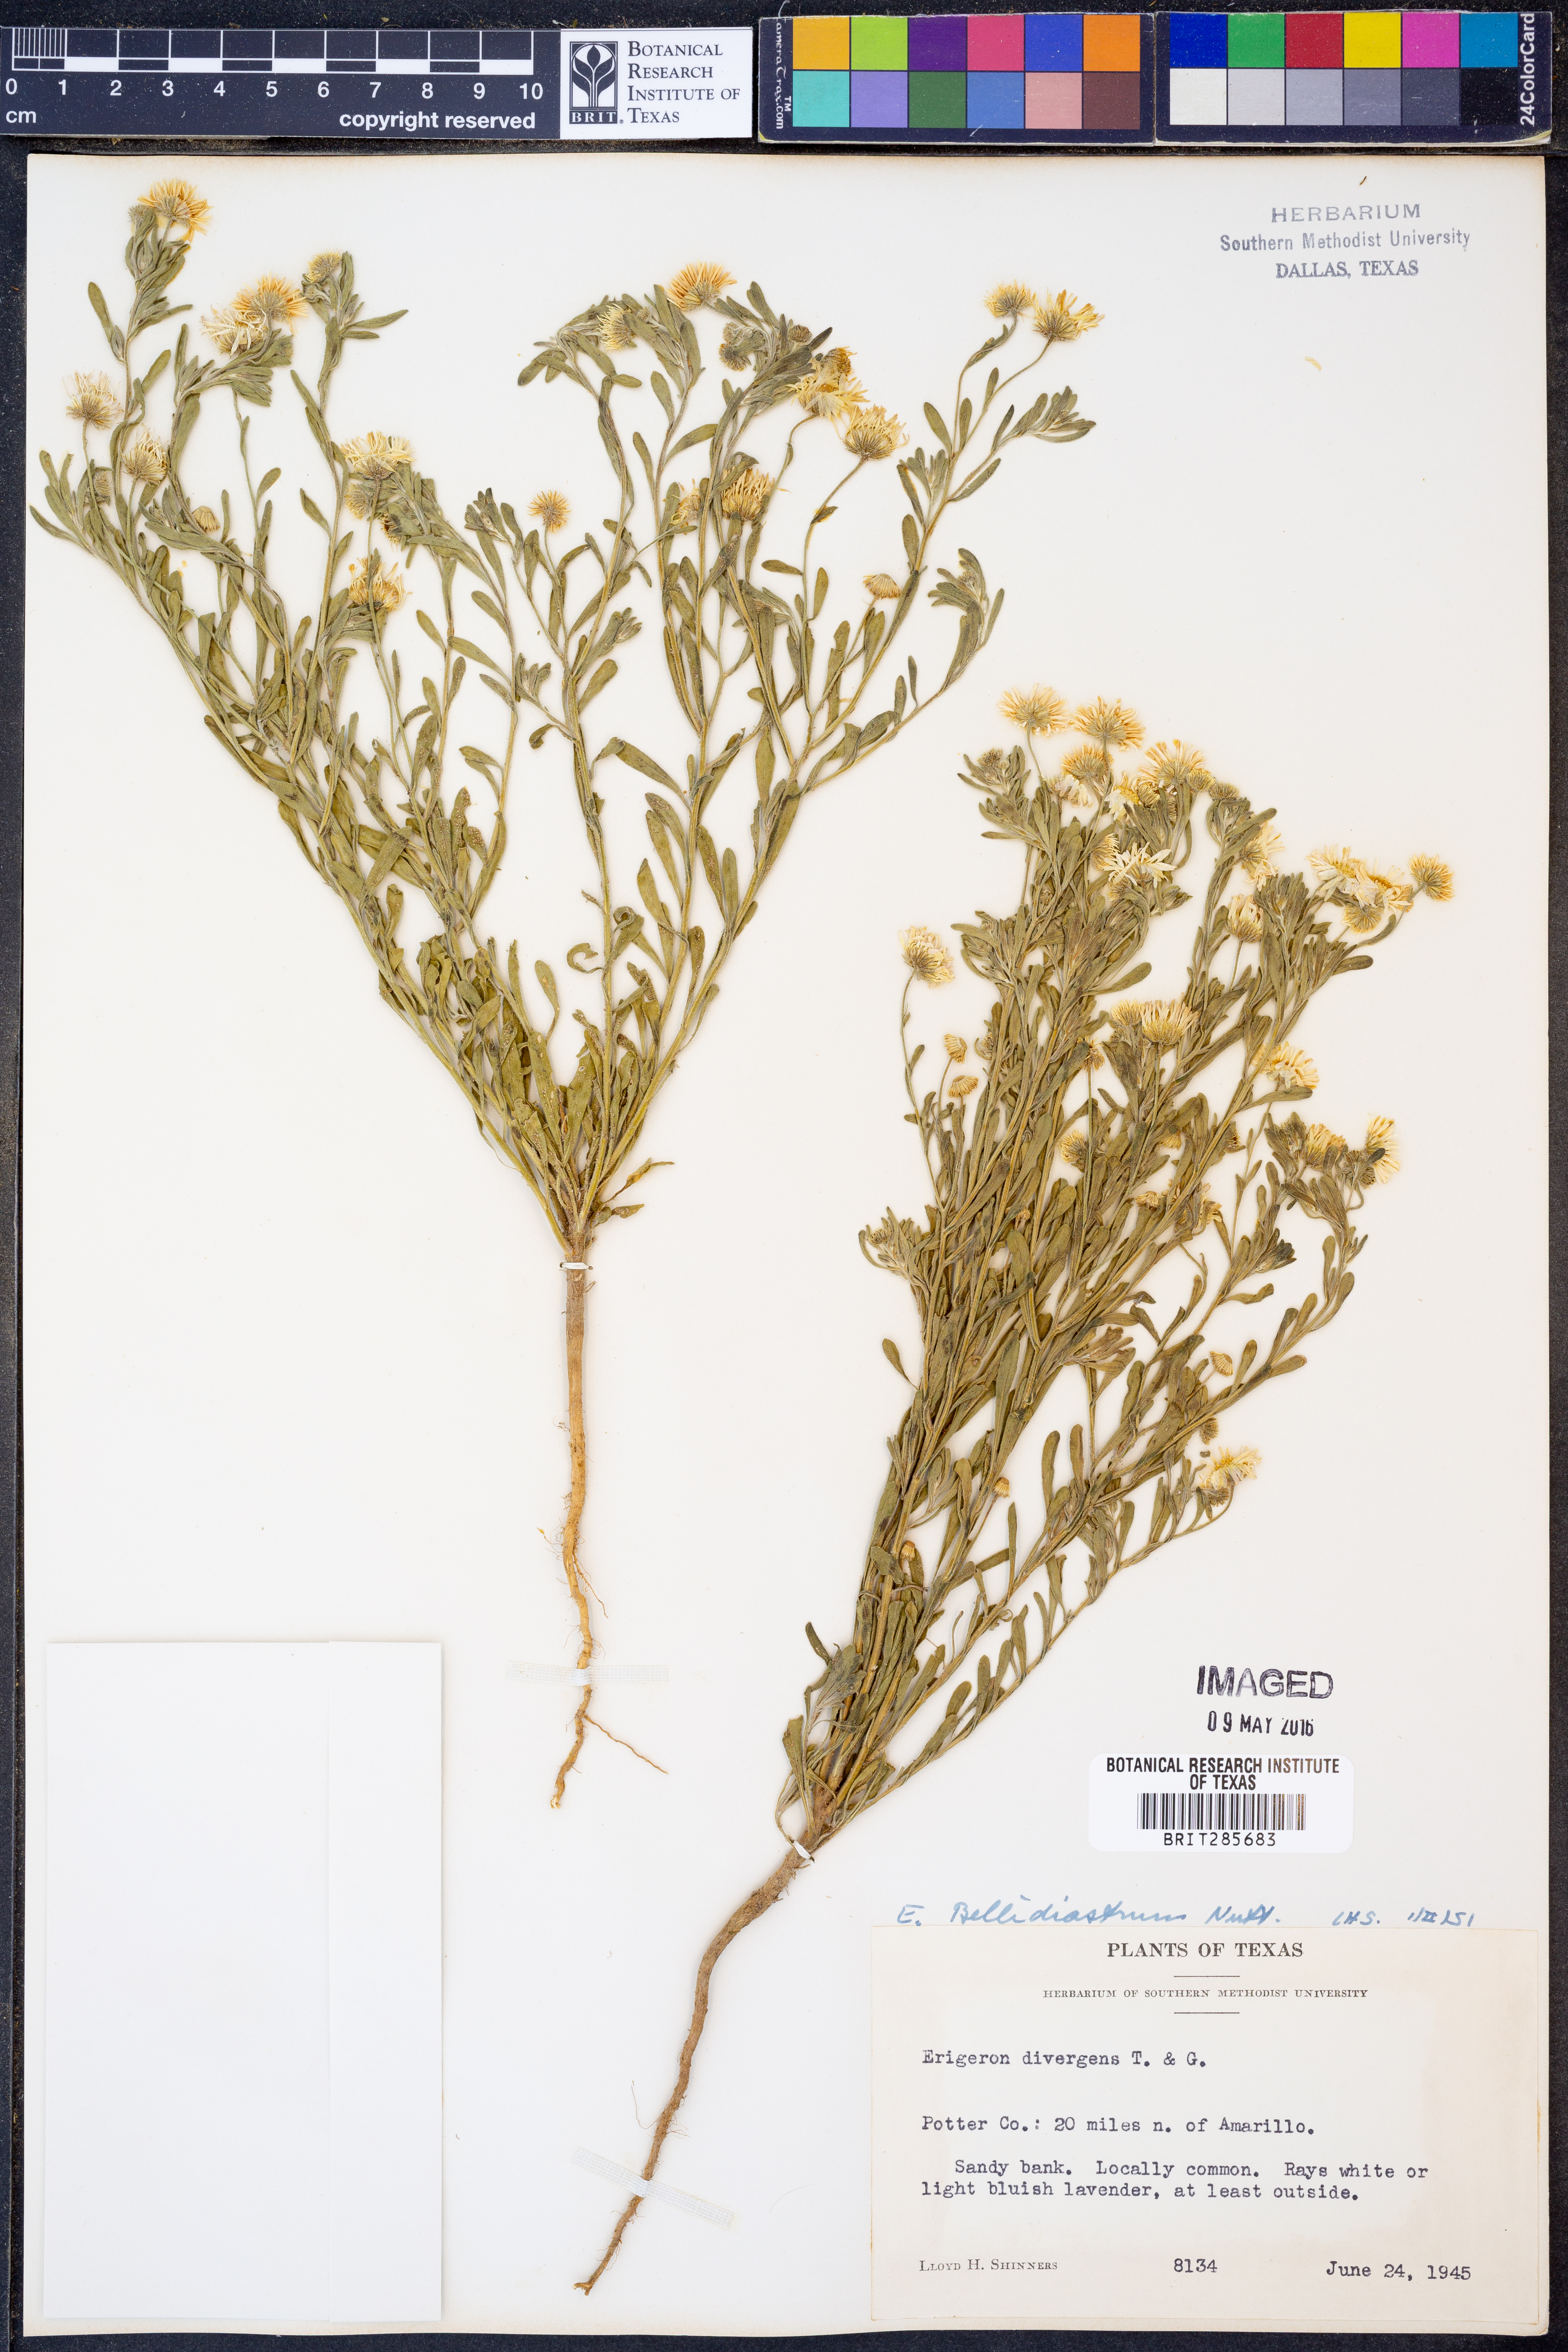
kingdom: Plantae
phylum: Tracheophyta
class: Magnoliopsida
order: Asterales
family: Asteraceae
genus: Erigeron
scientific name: Erigeron bellidiastrum
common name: Sand fleabane
